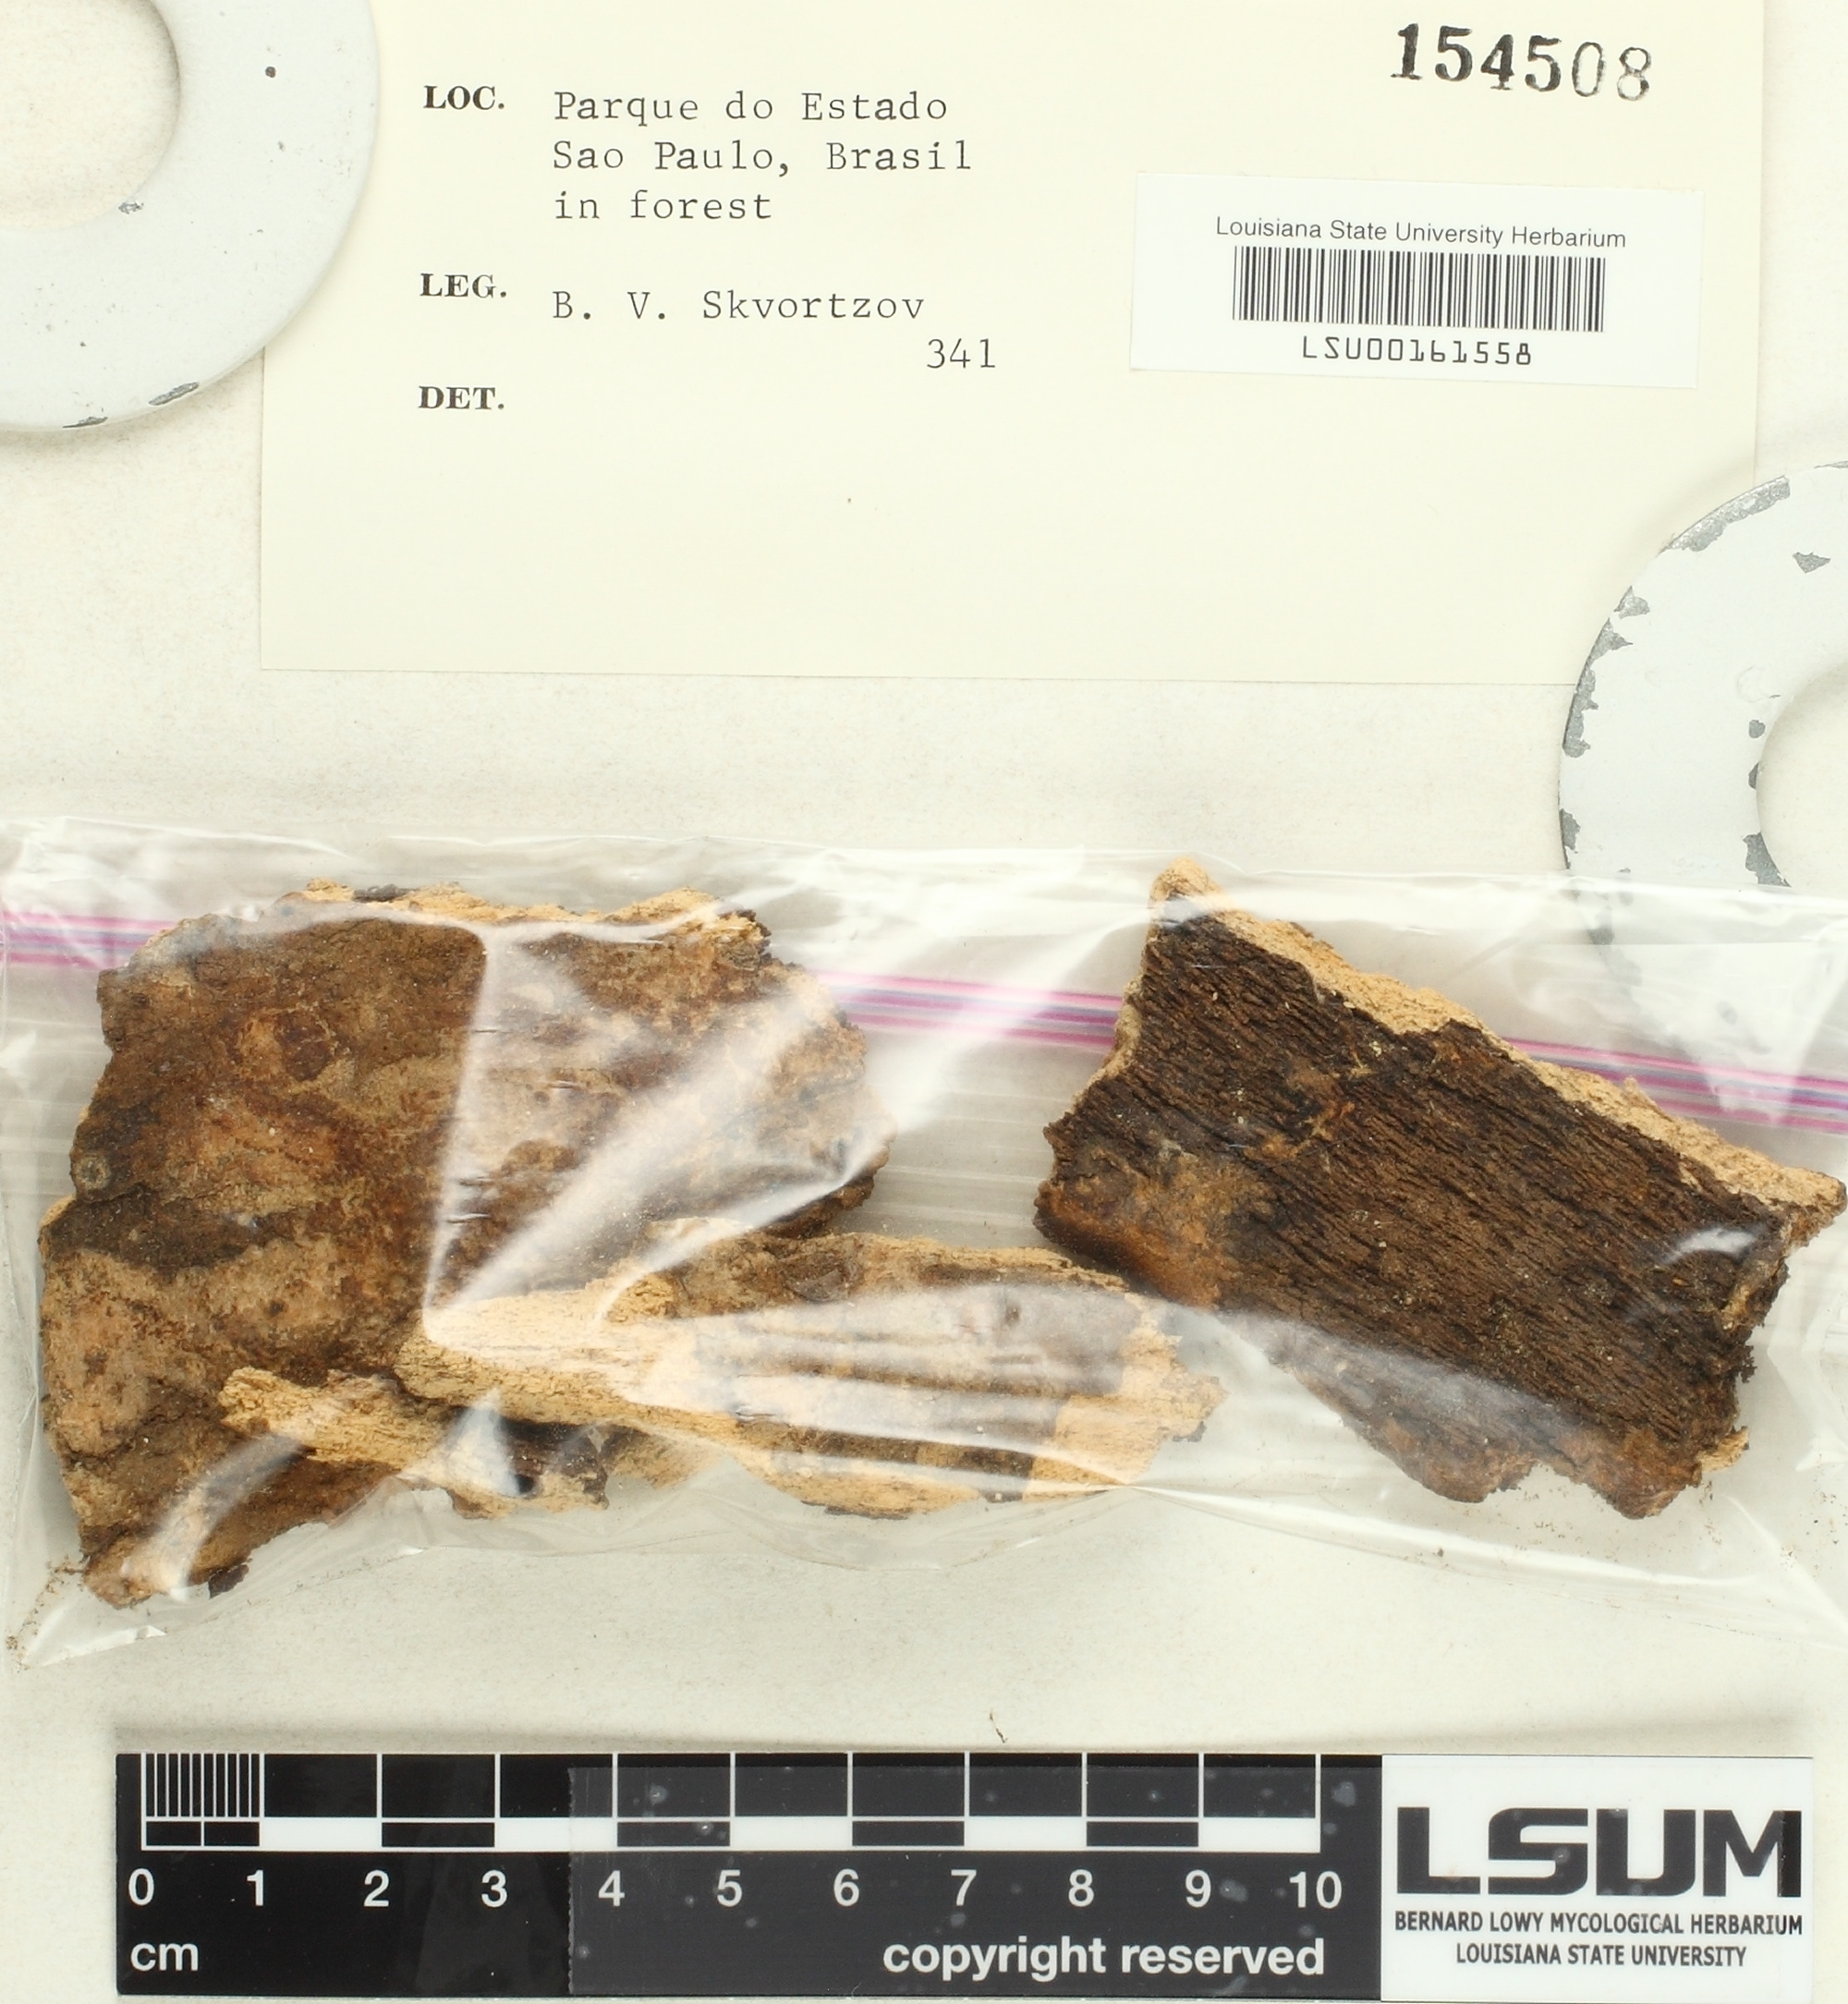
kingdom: Fungi
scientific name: Fungi
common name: Fungi
